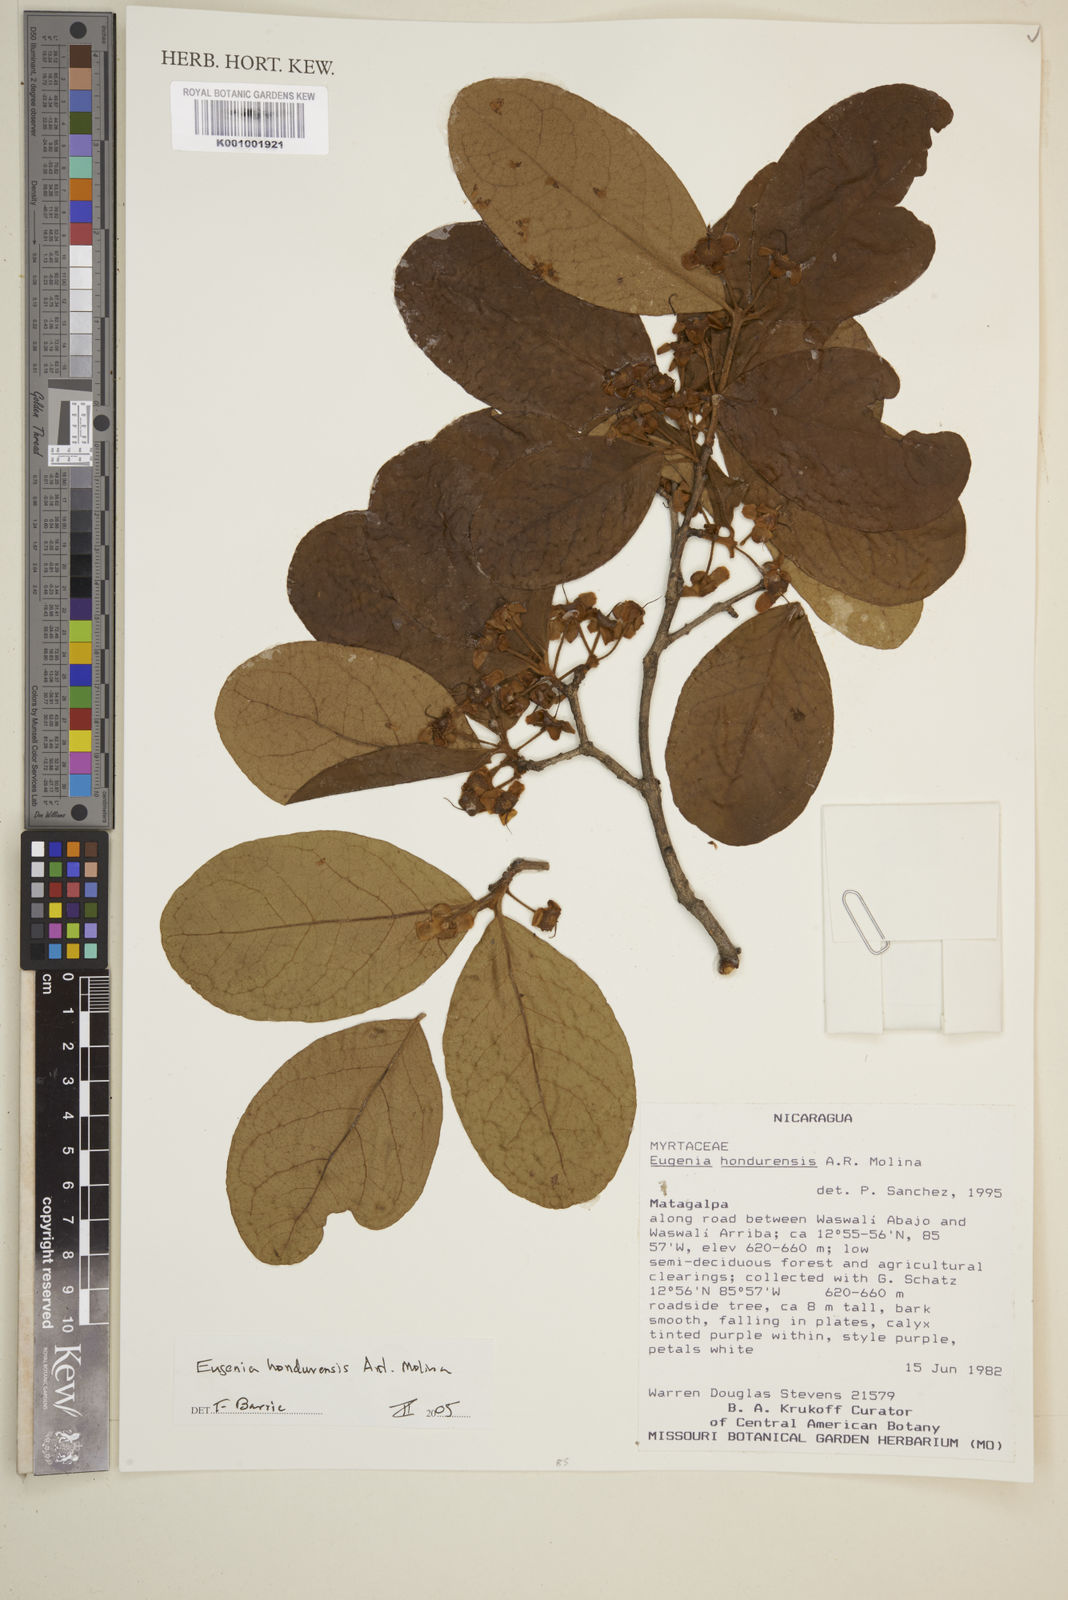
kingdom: Plantae
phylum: Tracheophyta
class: Magnoliopsida
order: Myrtales
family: Myrtaceae
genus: Eugenia
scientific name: Eugenia hondurensis
